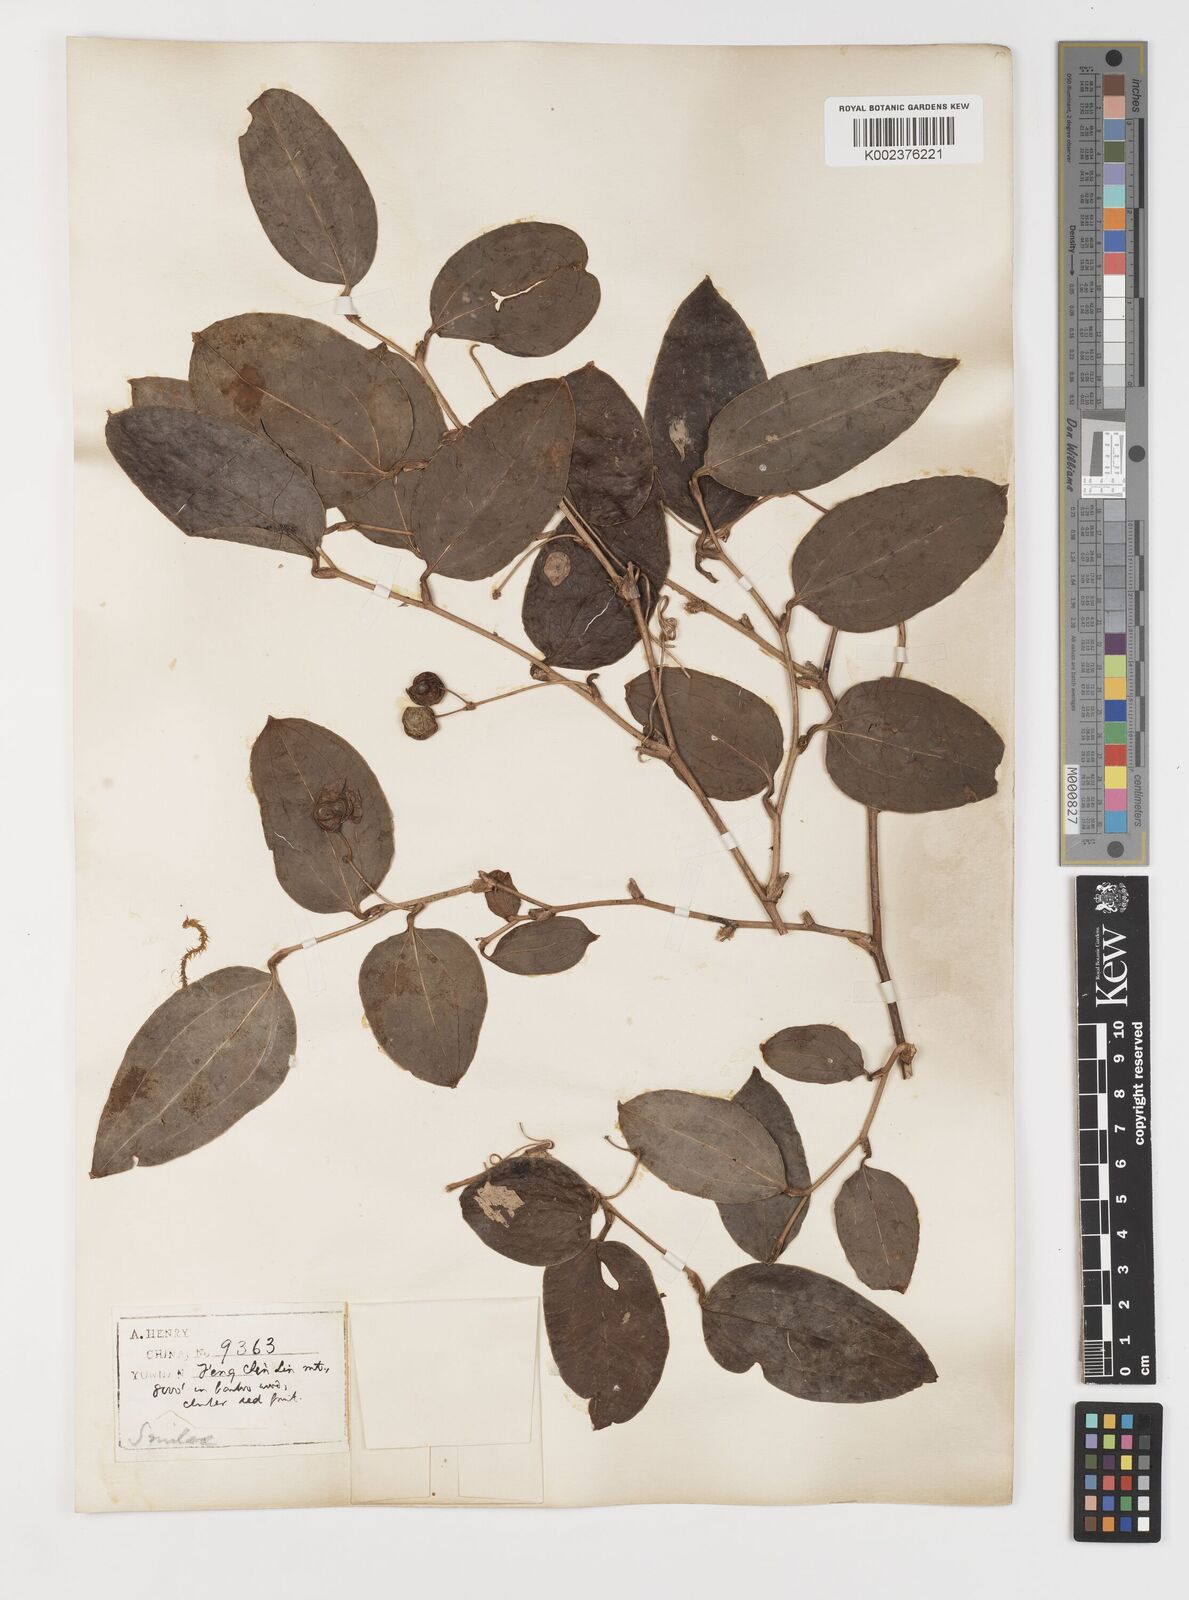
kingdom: Plantae
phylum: Tracheophyta
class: Liliopsida
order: Liliales
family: Smilacaceae
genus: Smilax
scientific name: Smilax ferox
